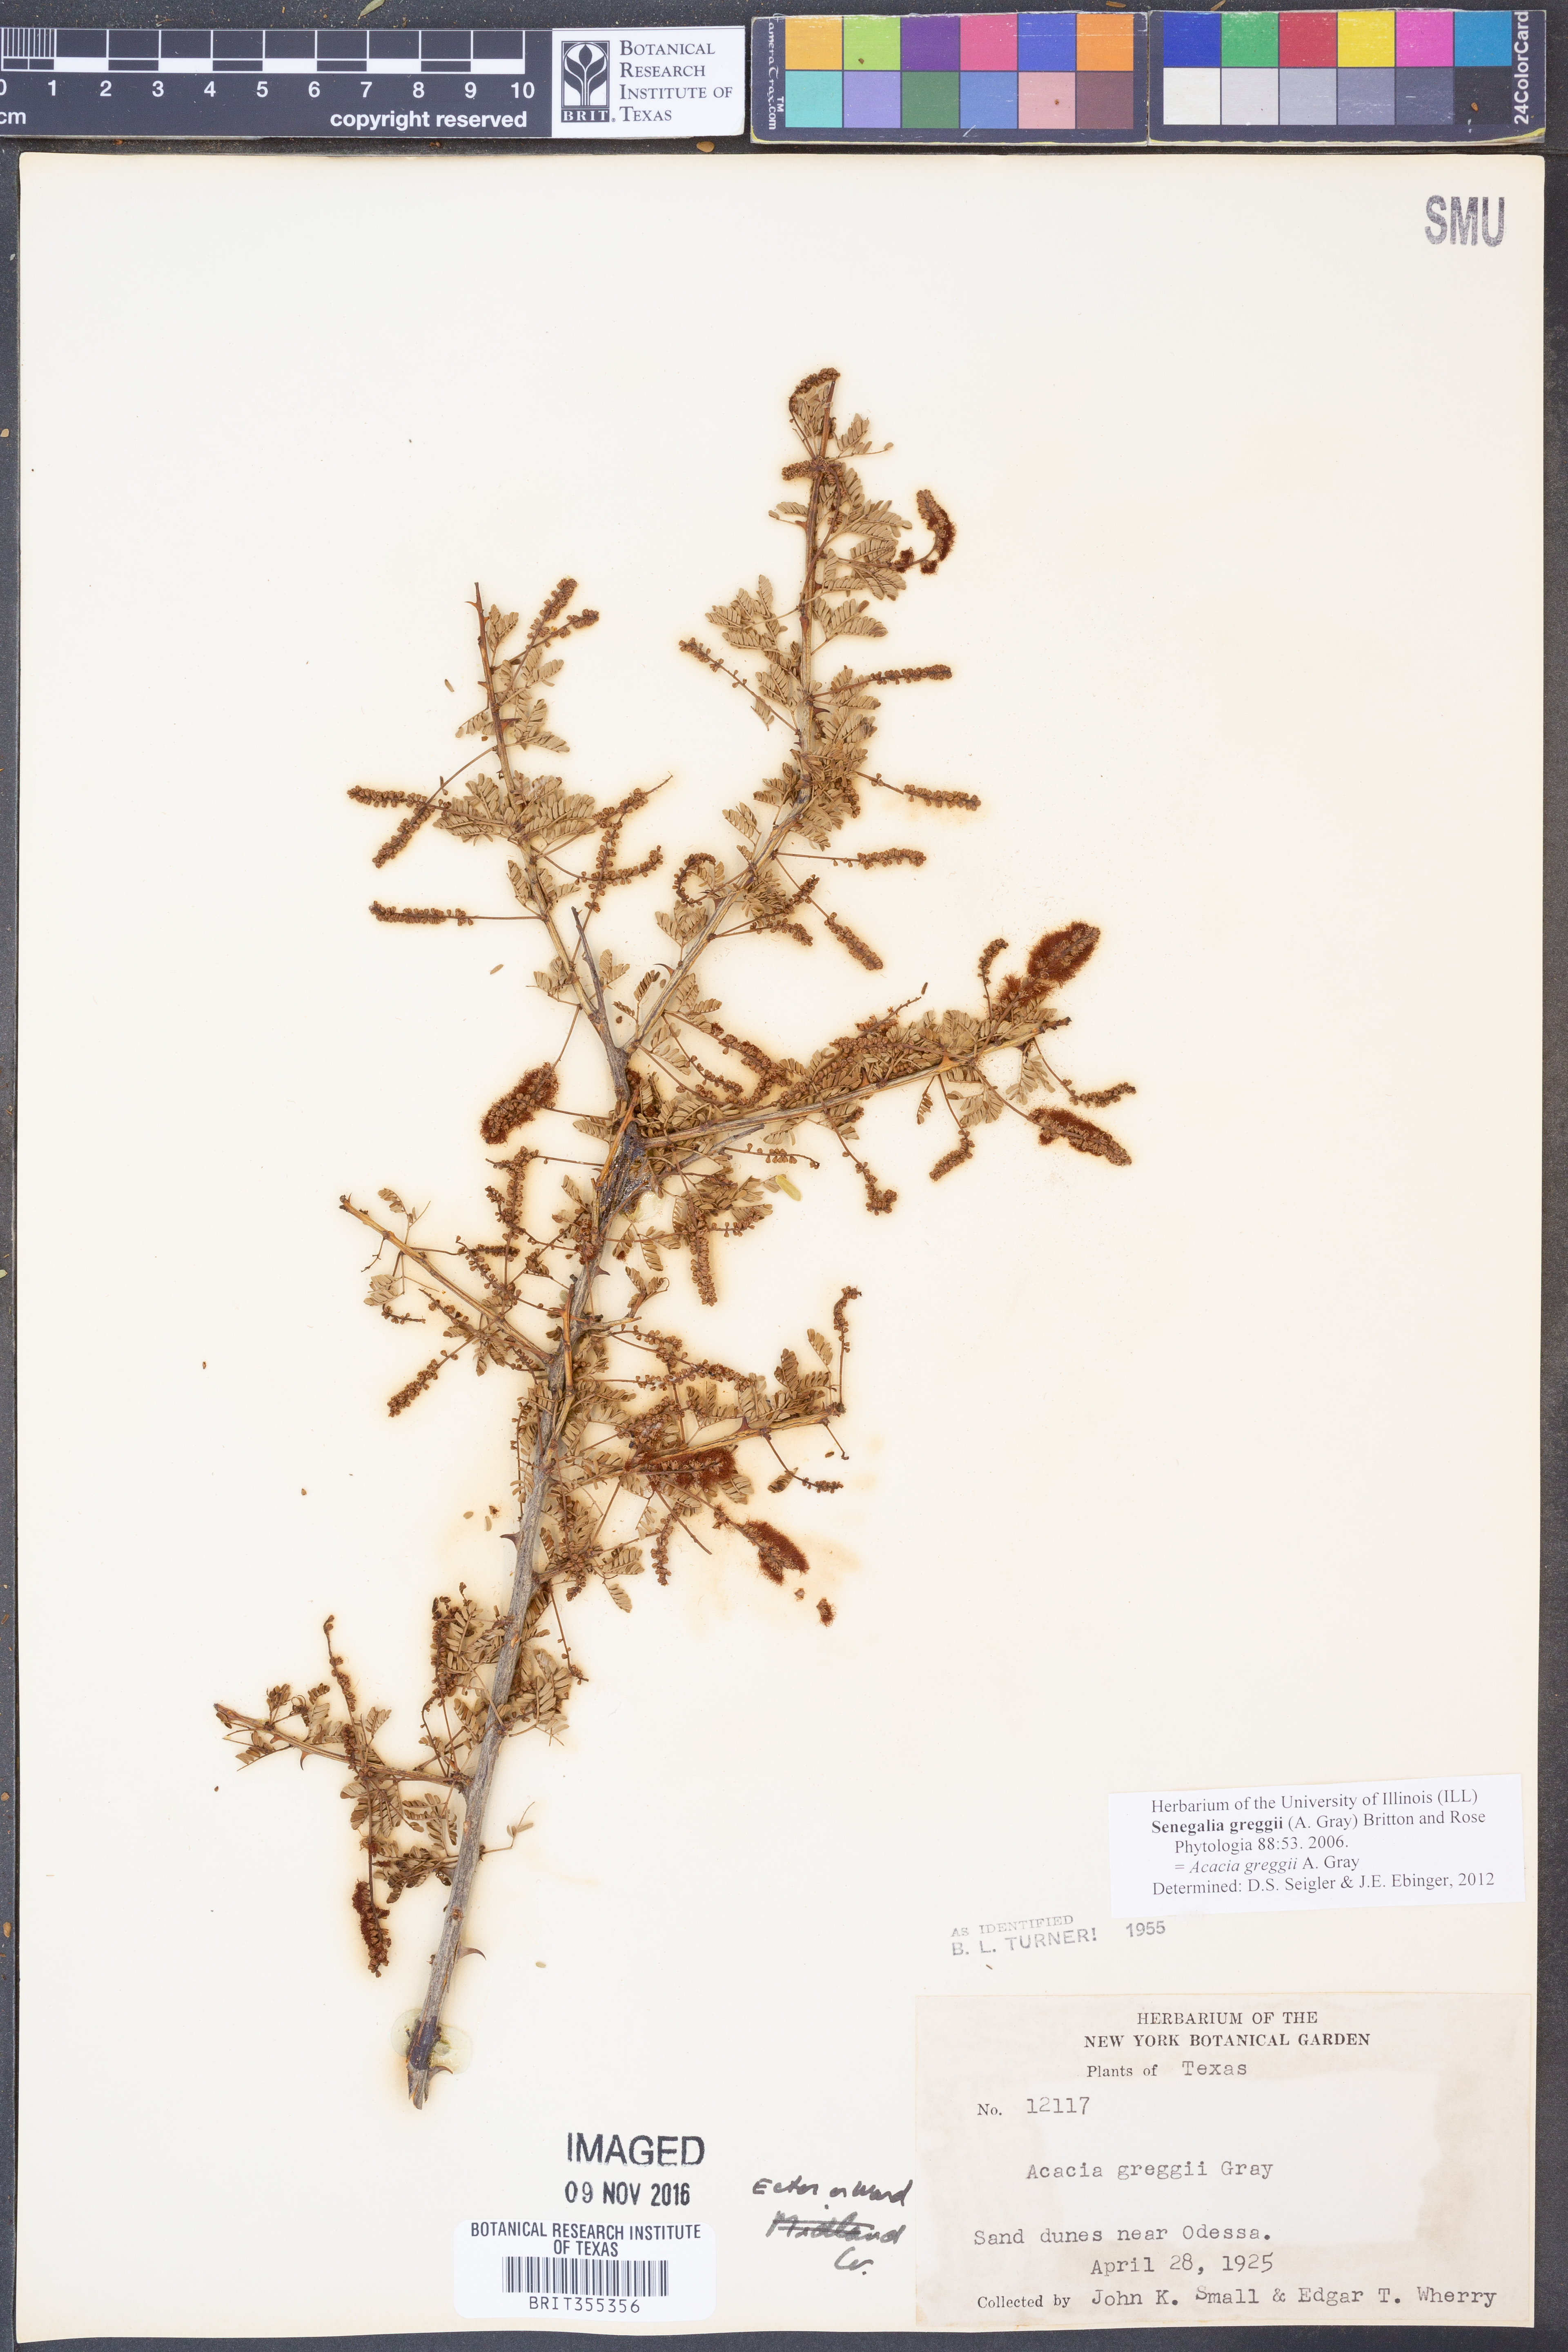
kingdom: Plantae
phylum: Tracheophyta
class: Magnoliopsida
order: Fabales
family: Fabaceae
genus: Senegalia
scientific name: Senegalia greggii
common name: Texas-mimosa
